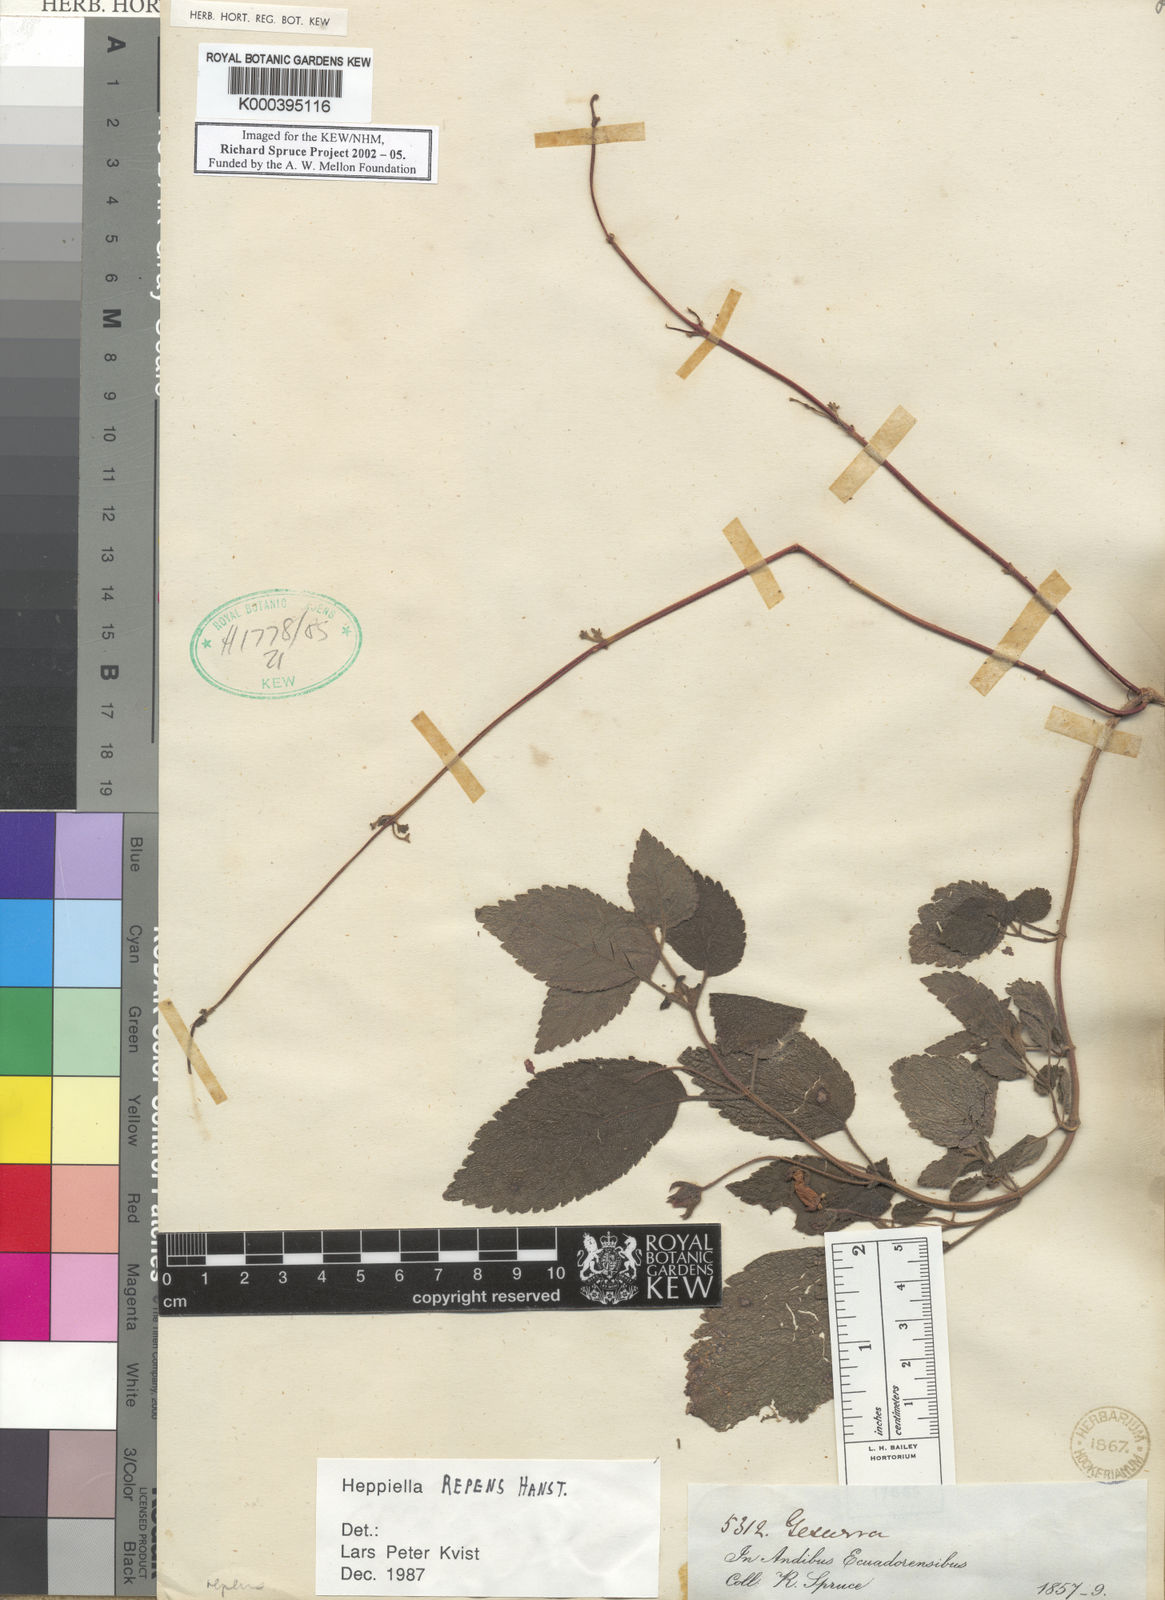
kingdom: Plantae
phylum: Tracheophyta
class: Magnoliopsida
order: Lamiales
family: Gesneriaceae
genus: Heppiella
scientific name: Heppiella repens
